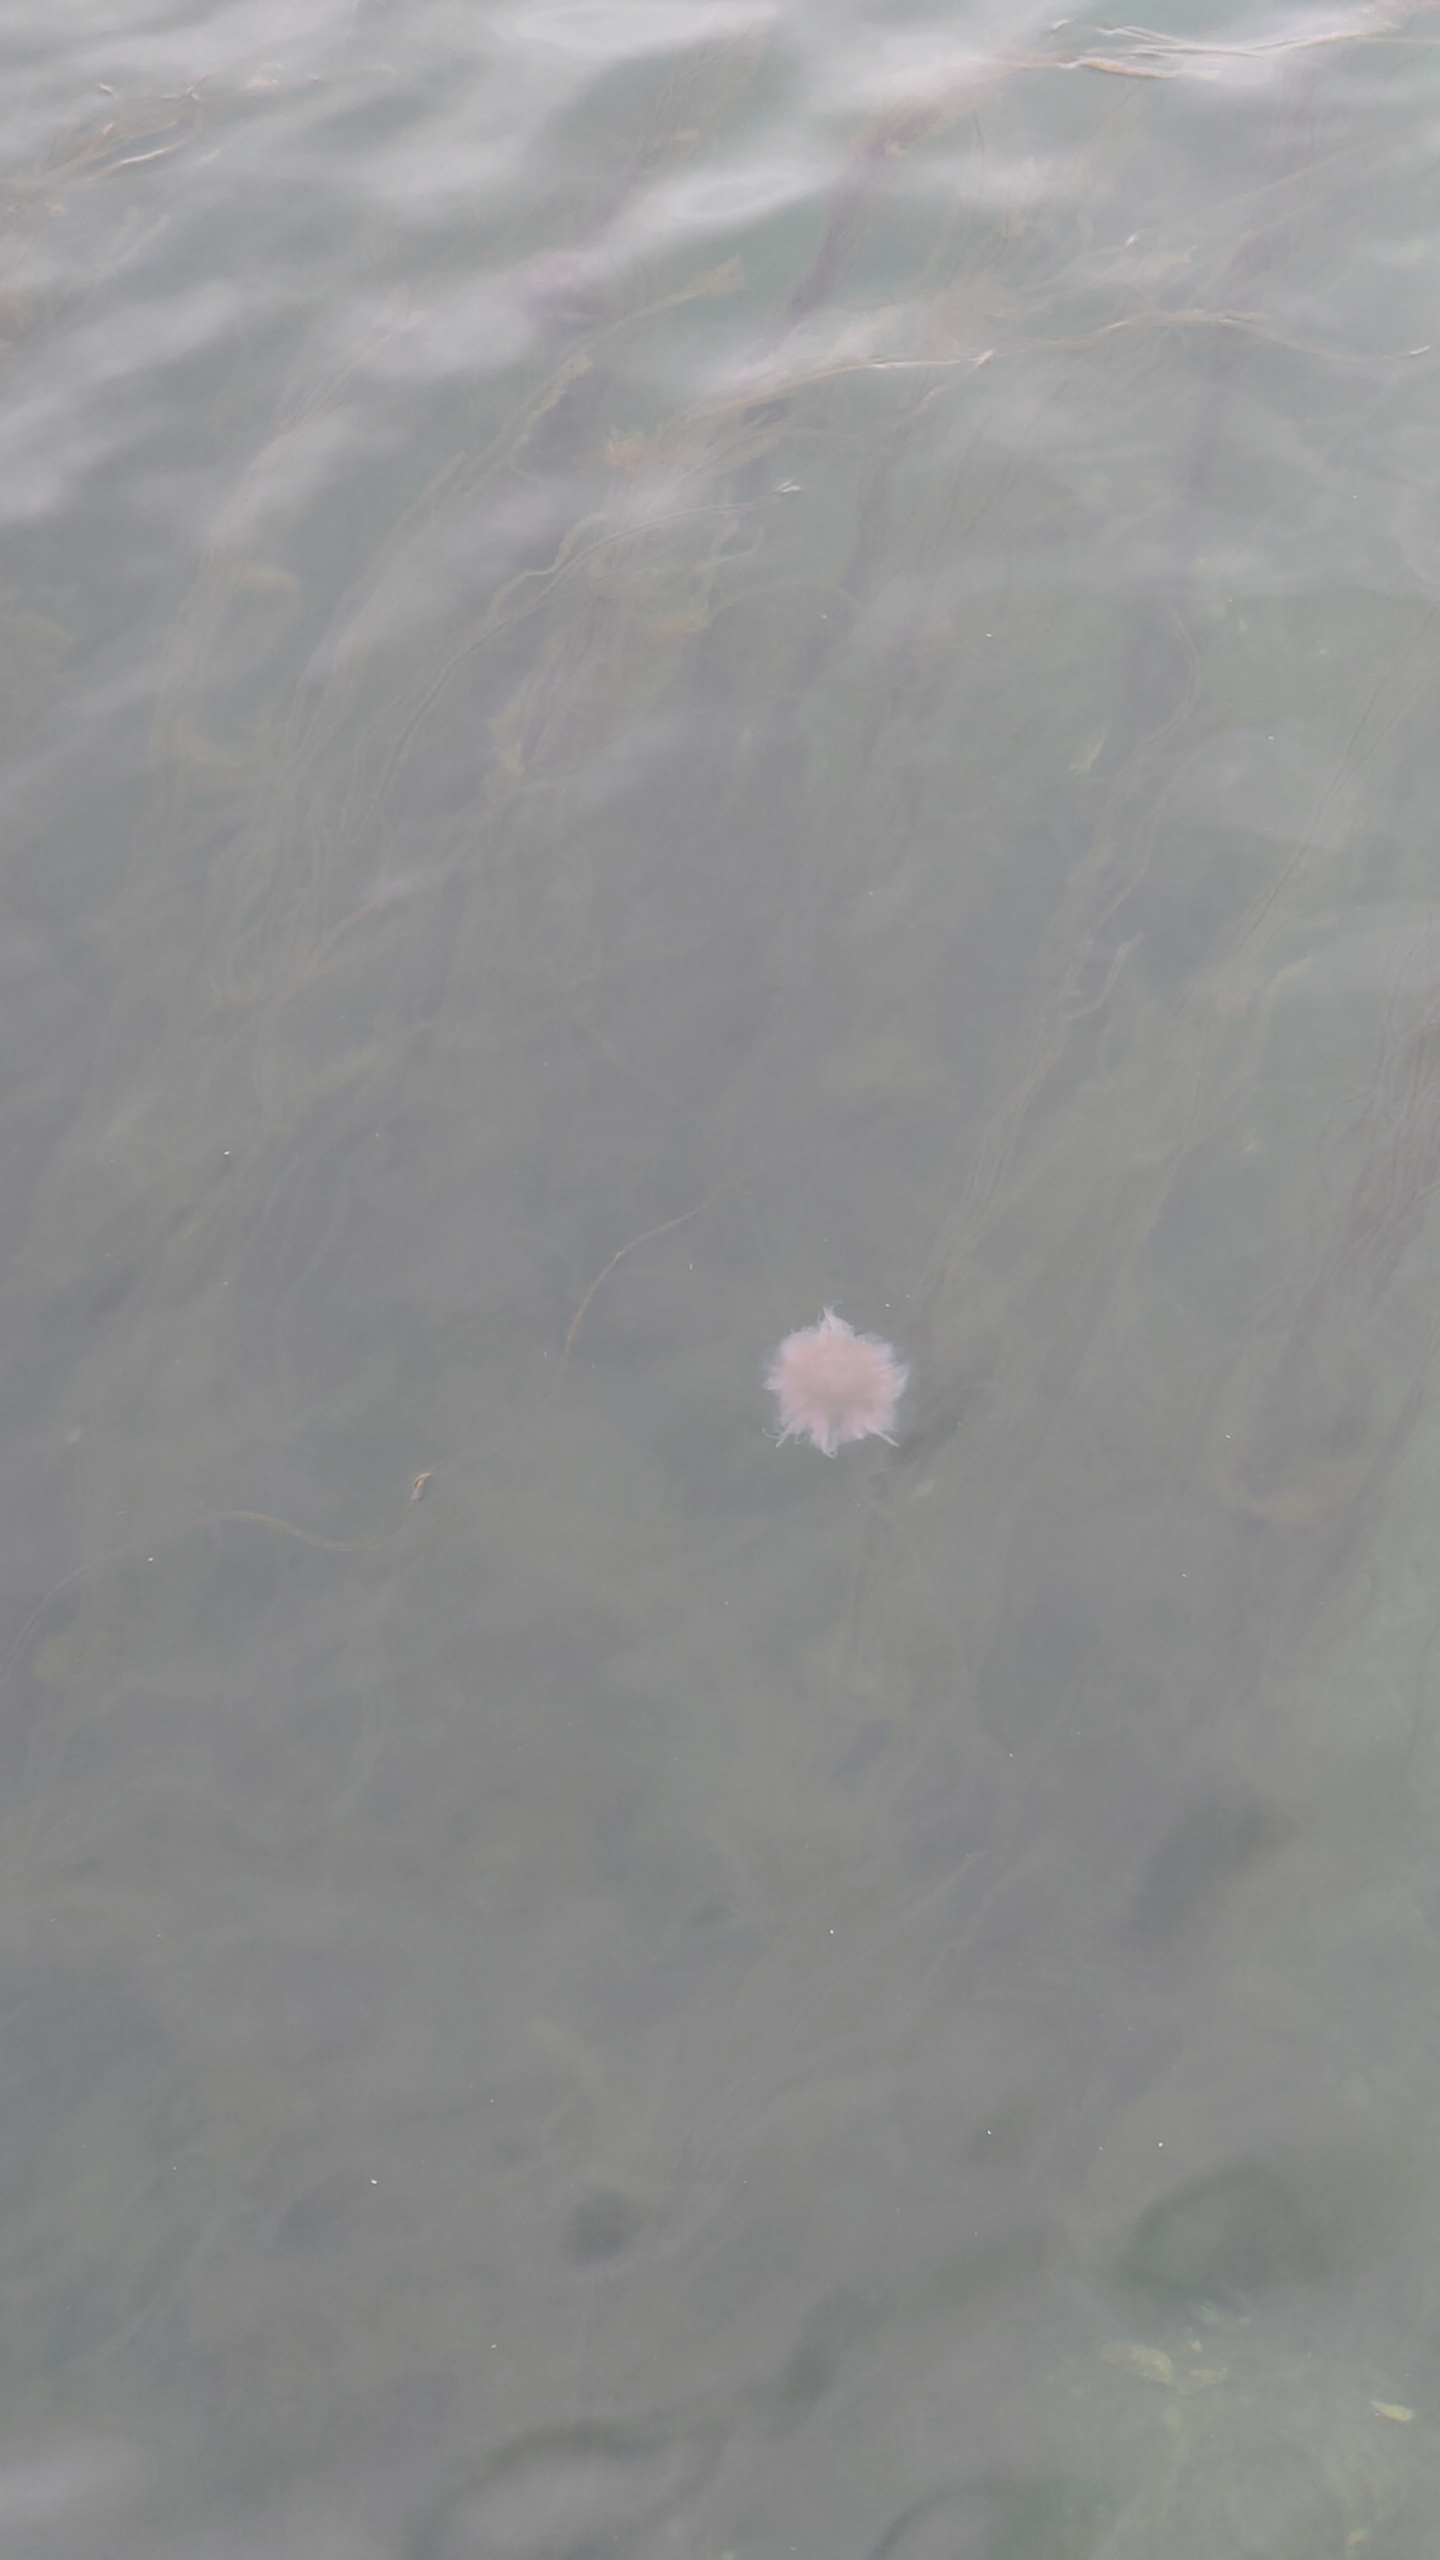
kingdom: Animalia
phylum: Cnidaria
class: Scyphozoa
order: Semaeostomeae
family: Cyaneidae
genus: Cyanea
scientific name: Cyanea capillata
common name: Rød brandmand
